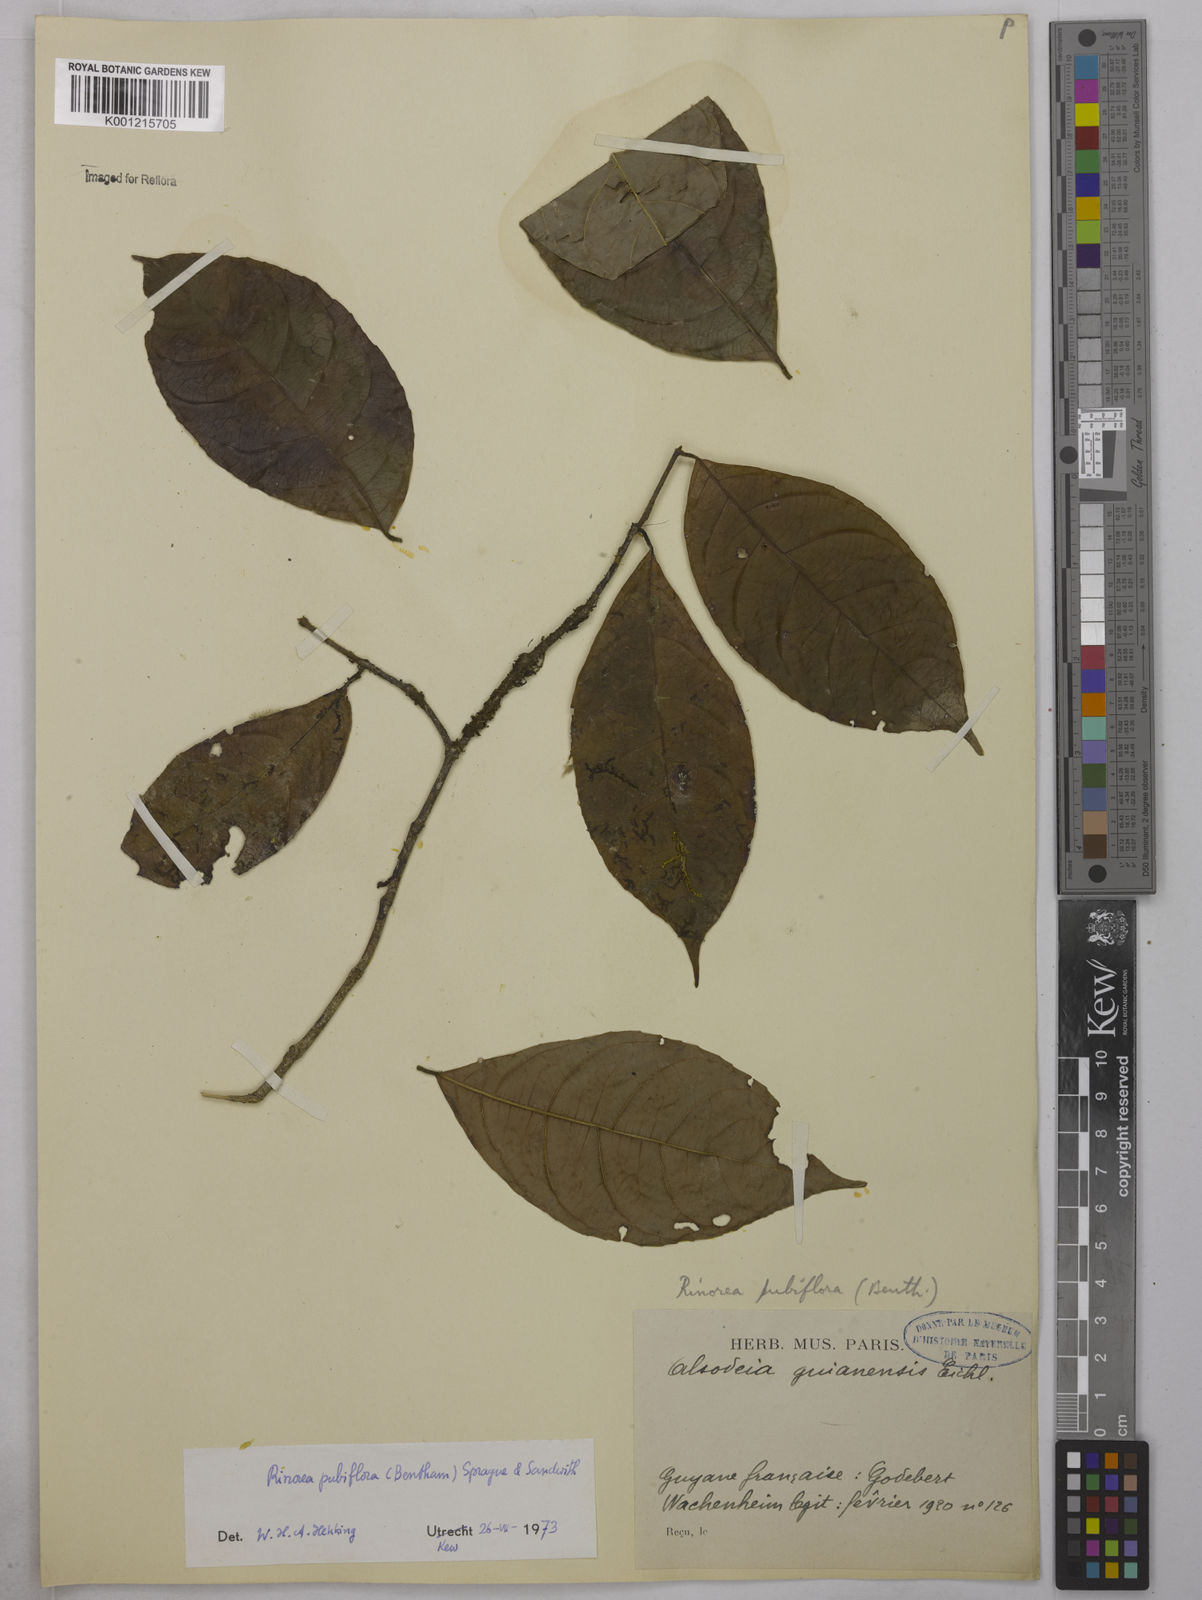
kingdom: Plantae
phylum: Tracheophyta
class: Magnoliopsida
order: Malpighiales
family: Violaceae
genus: Rinorea
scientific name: Rinorea pubiflora
